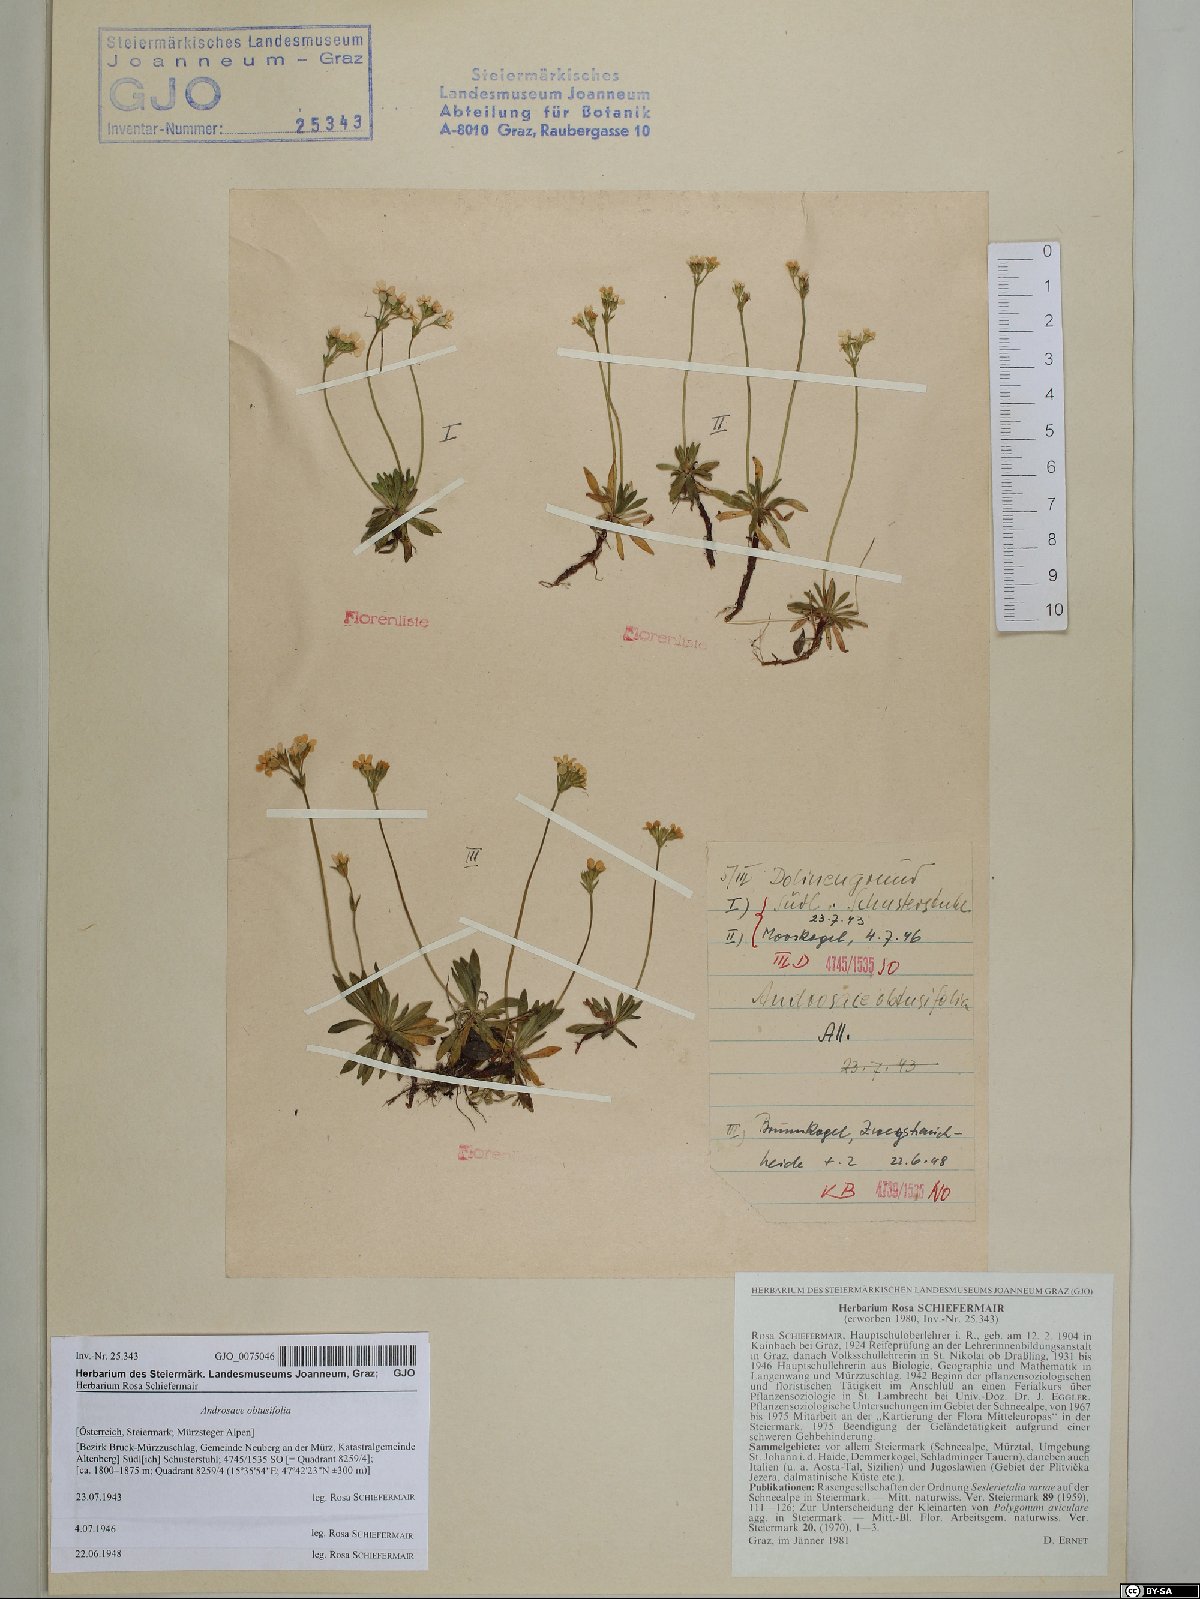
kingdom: Plantae
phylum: Tracheophyta
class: Magnoliopsida
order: Ericales
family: Primulaceae
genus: Androsace
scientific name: Androsace obtusifolia
